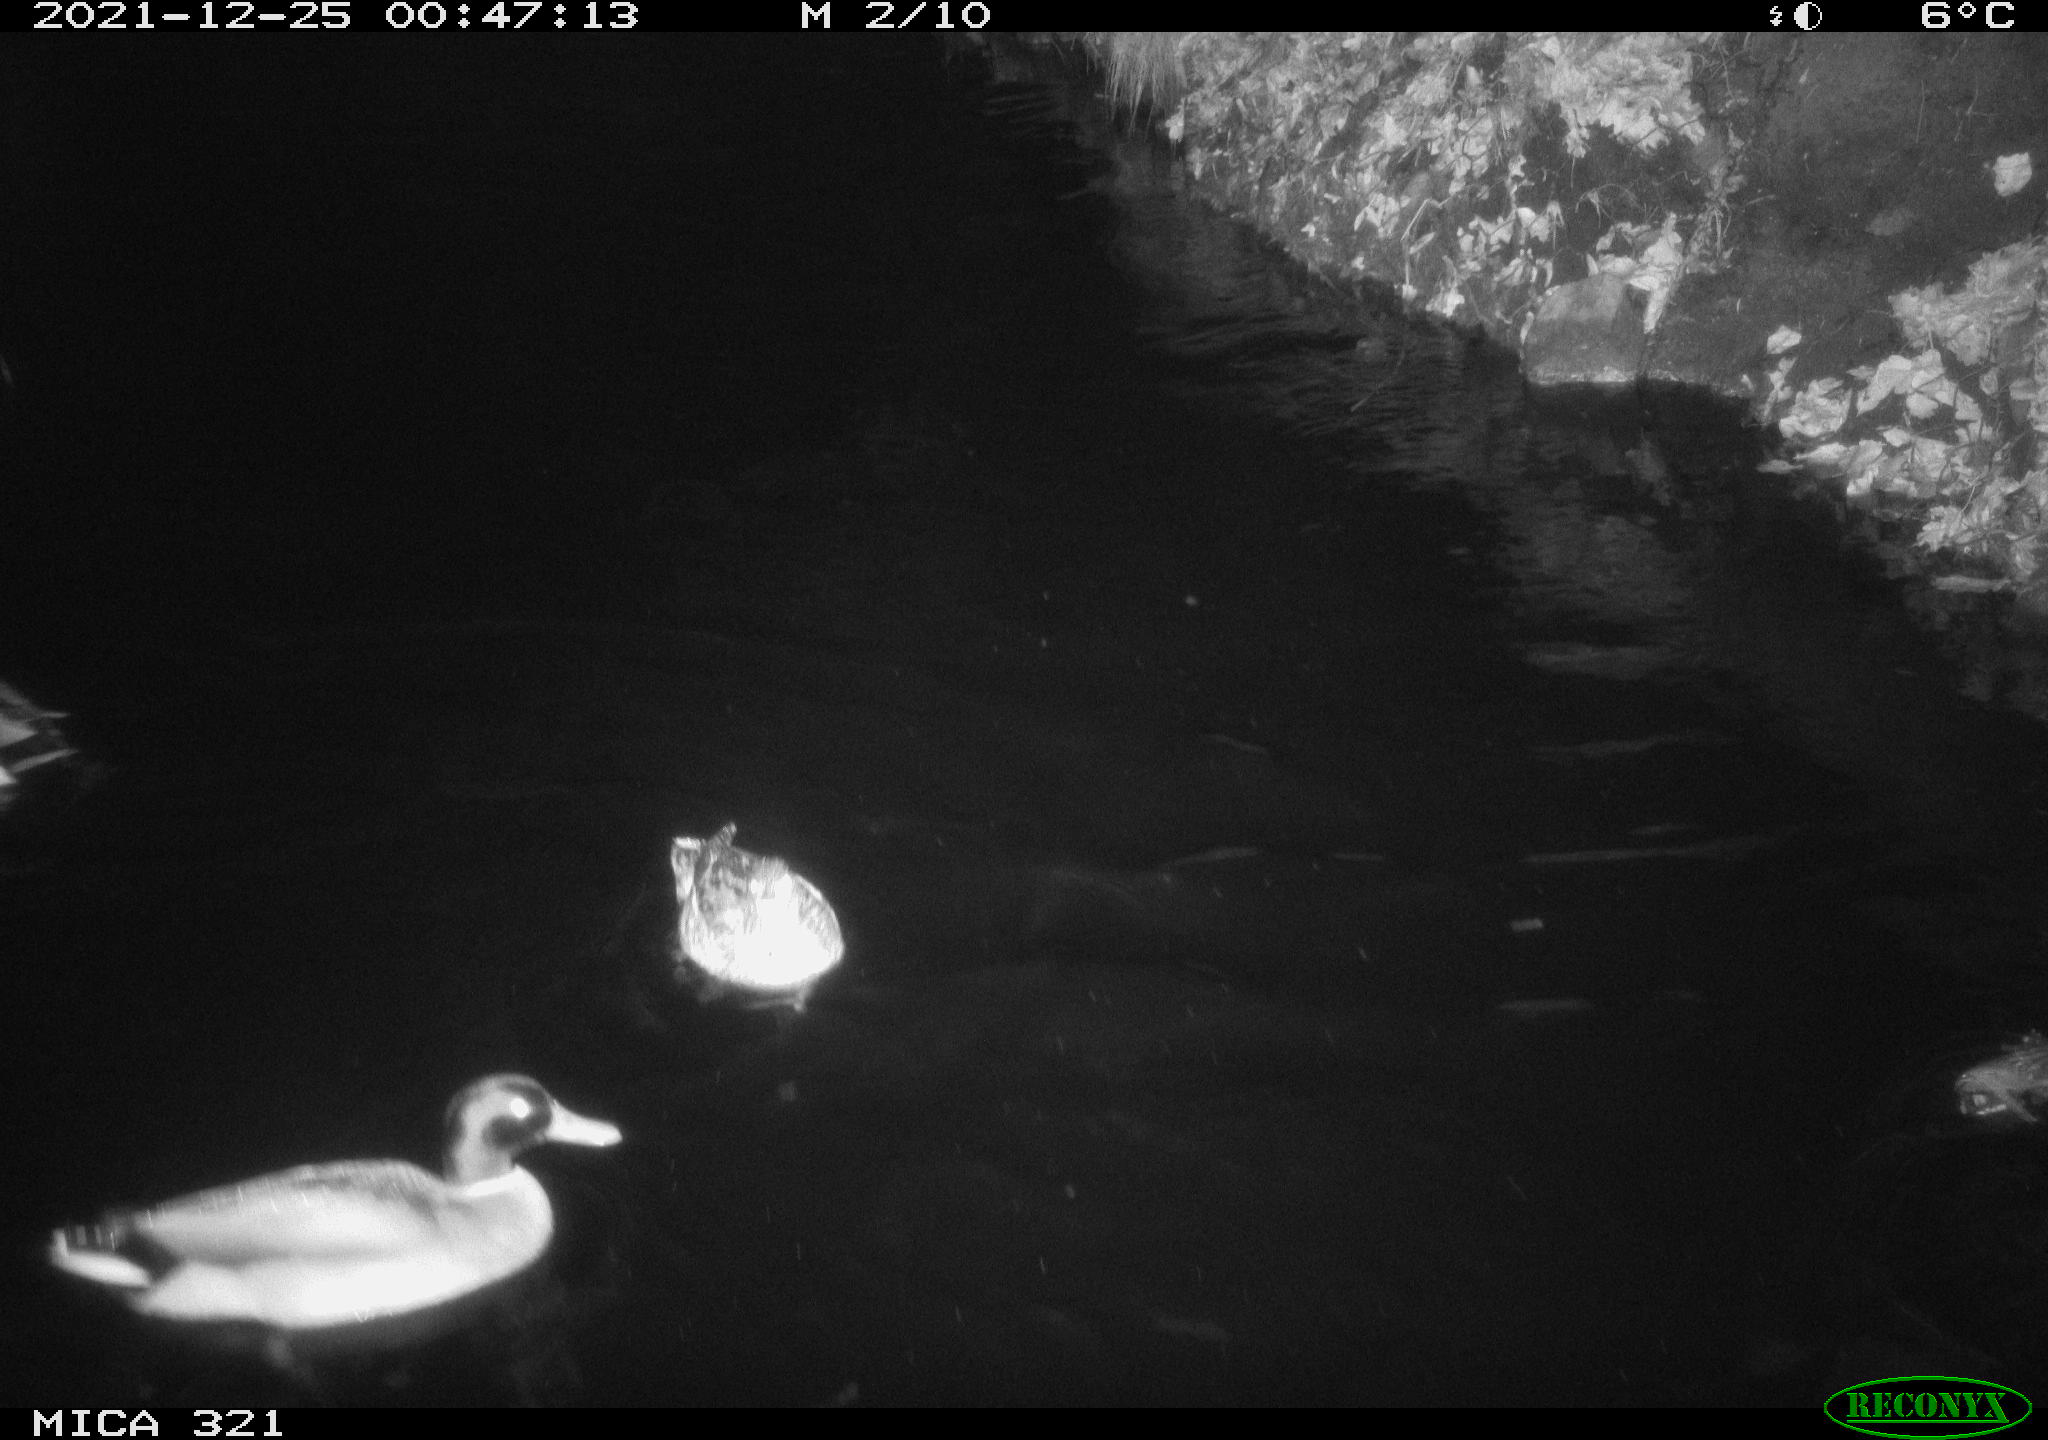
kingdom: Animalia
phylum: Chordata
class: Aves
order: Anseriformes
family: Anatidae
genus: Anas
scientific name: Anas
